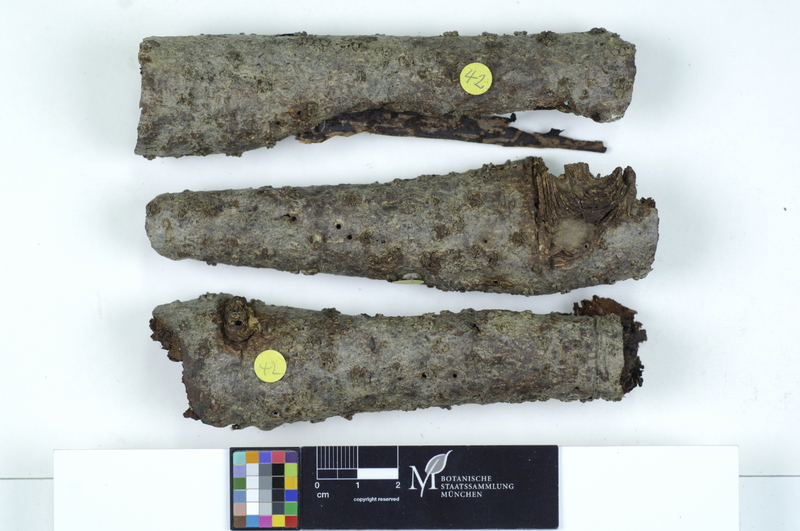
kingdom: Plantae
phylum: Tracheophyta
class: Pinopsida
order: Pinales
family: Pinaceae
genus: Picea
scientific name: Picea
